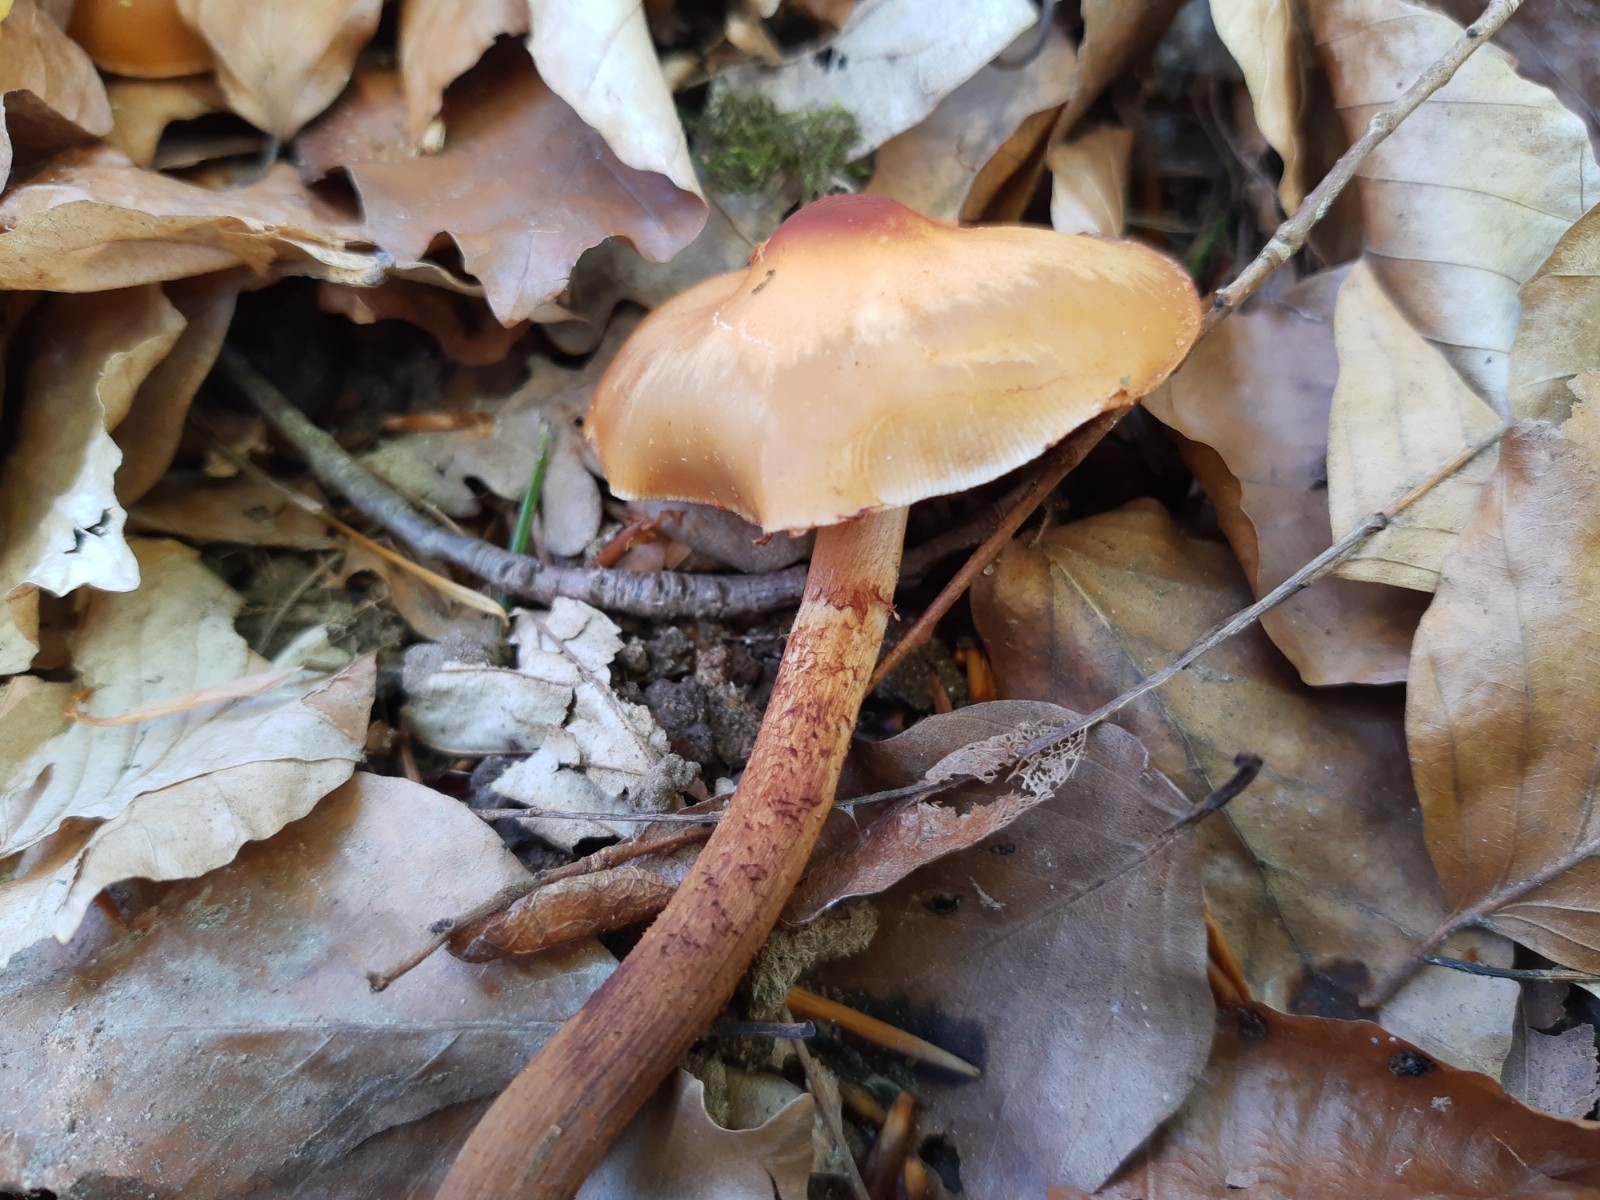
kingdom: Fungi
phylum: Basidiomycota
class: Agaricomycetes
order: Agaricales
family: Strophariaceae
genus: Kuehneromyces
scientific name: Kuehneromyces mutabilis
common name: foranderlig skælhat
